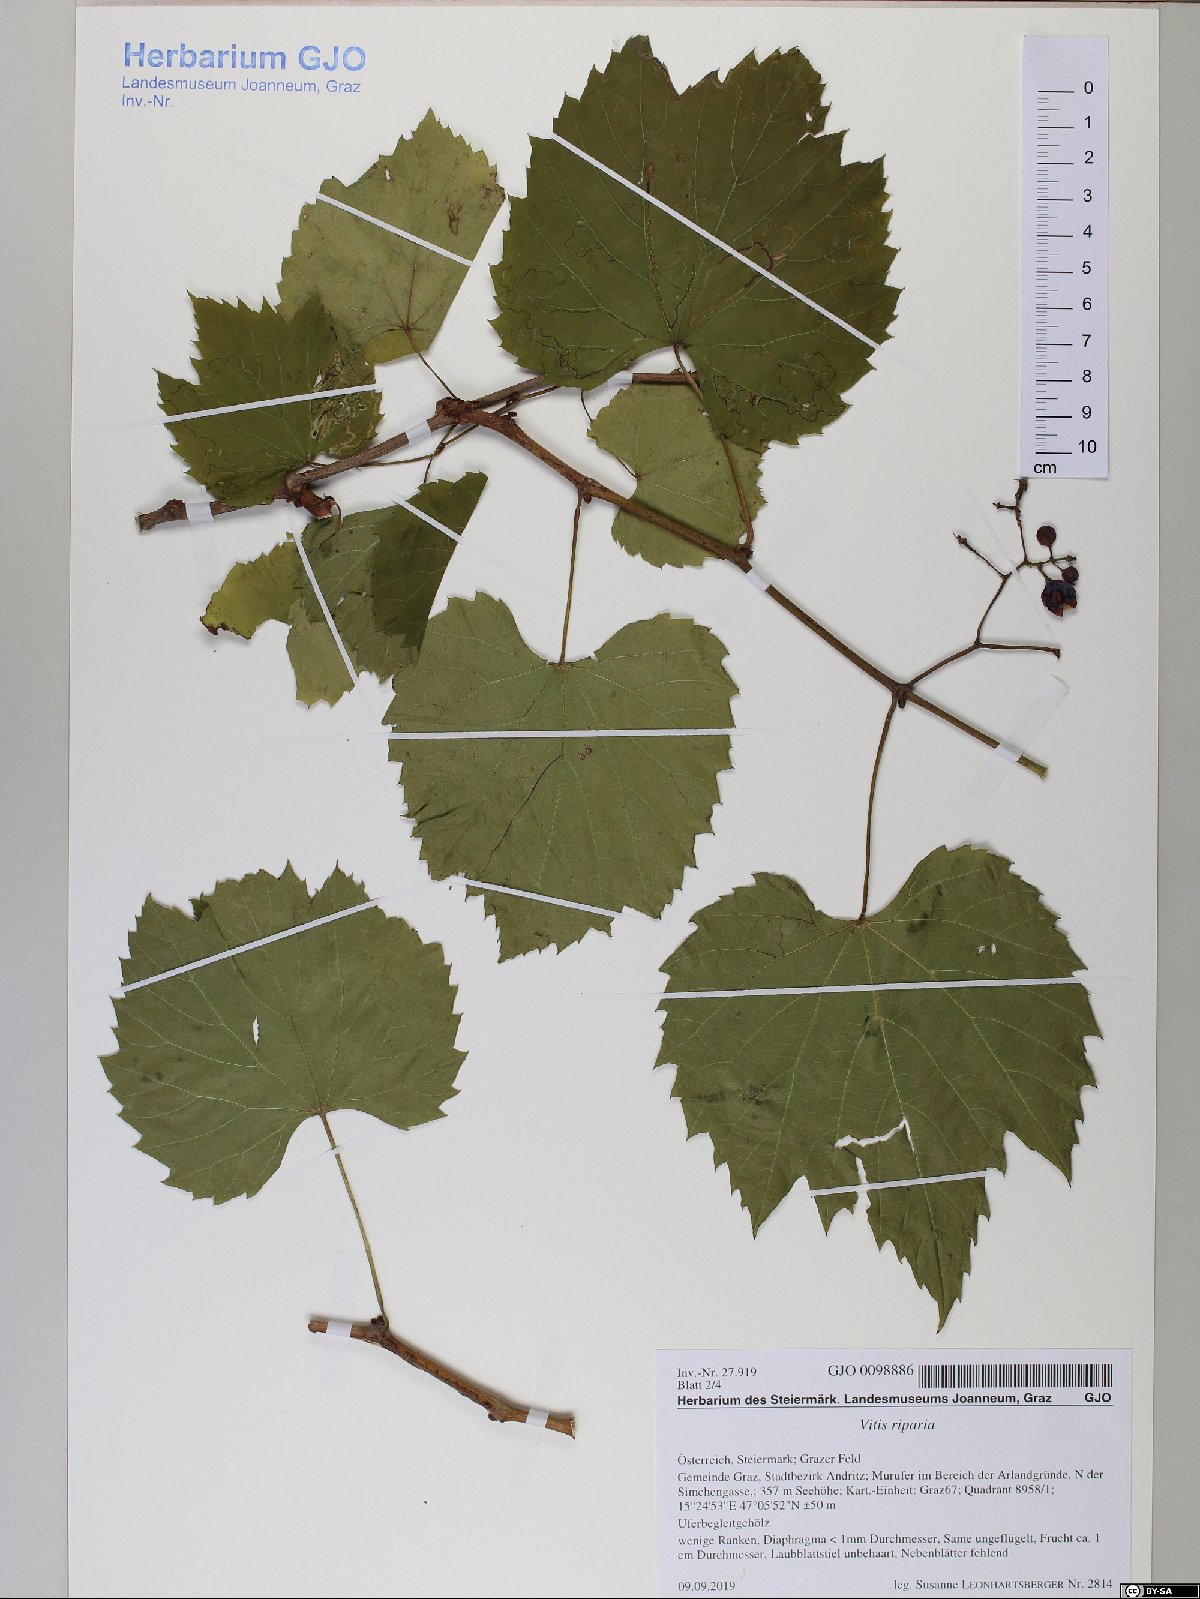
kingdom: Plantae
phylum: Tracheophyta
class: Magnoliopsida
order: Vitales
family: Vitaceae
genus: Vitis
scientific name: Vitis riparia
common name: Frost grape
